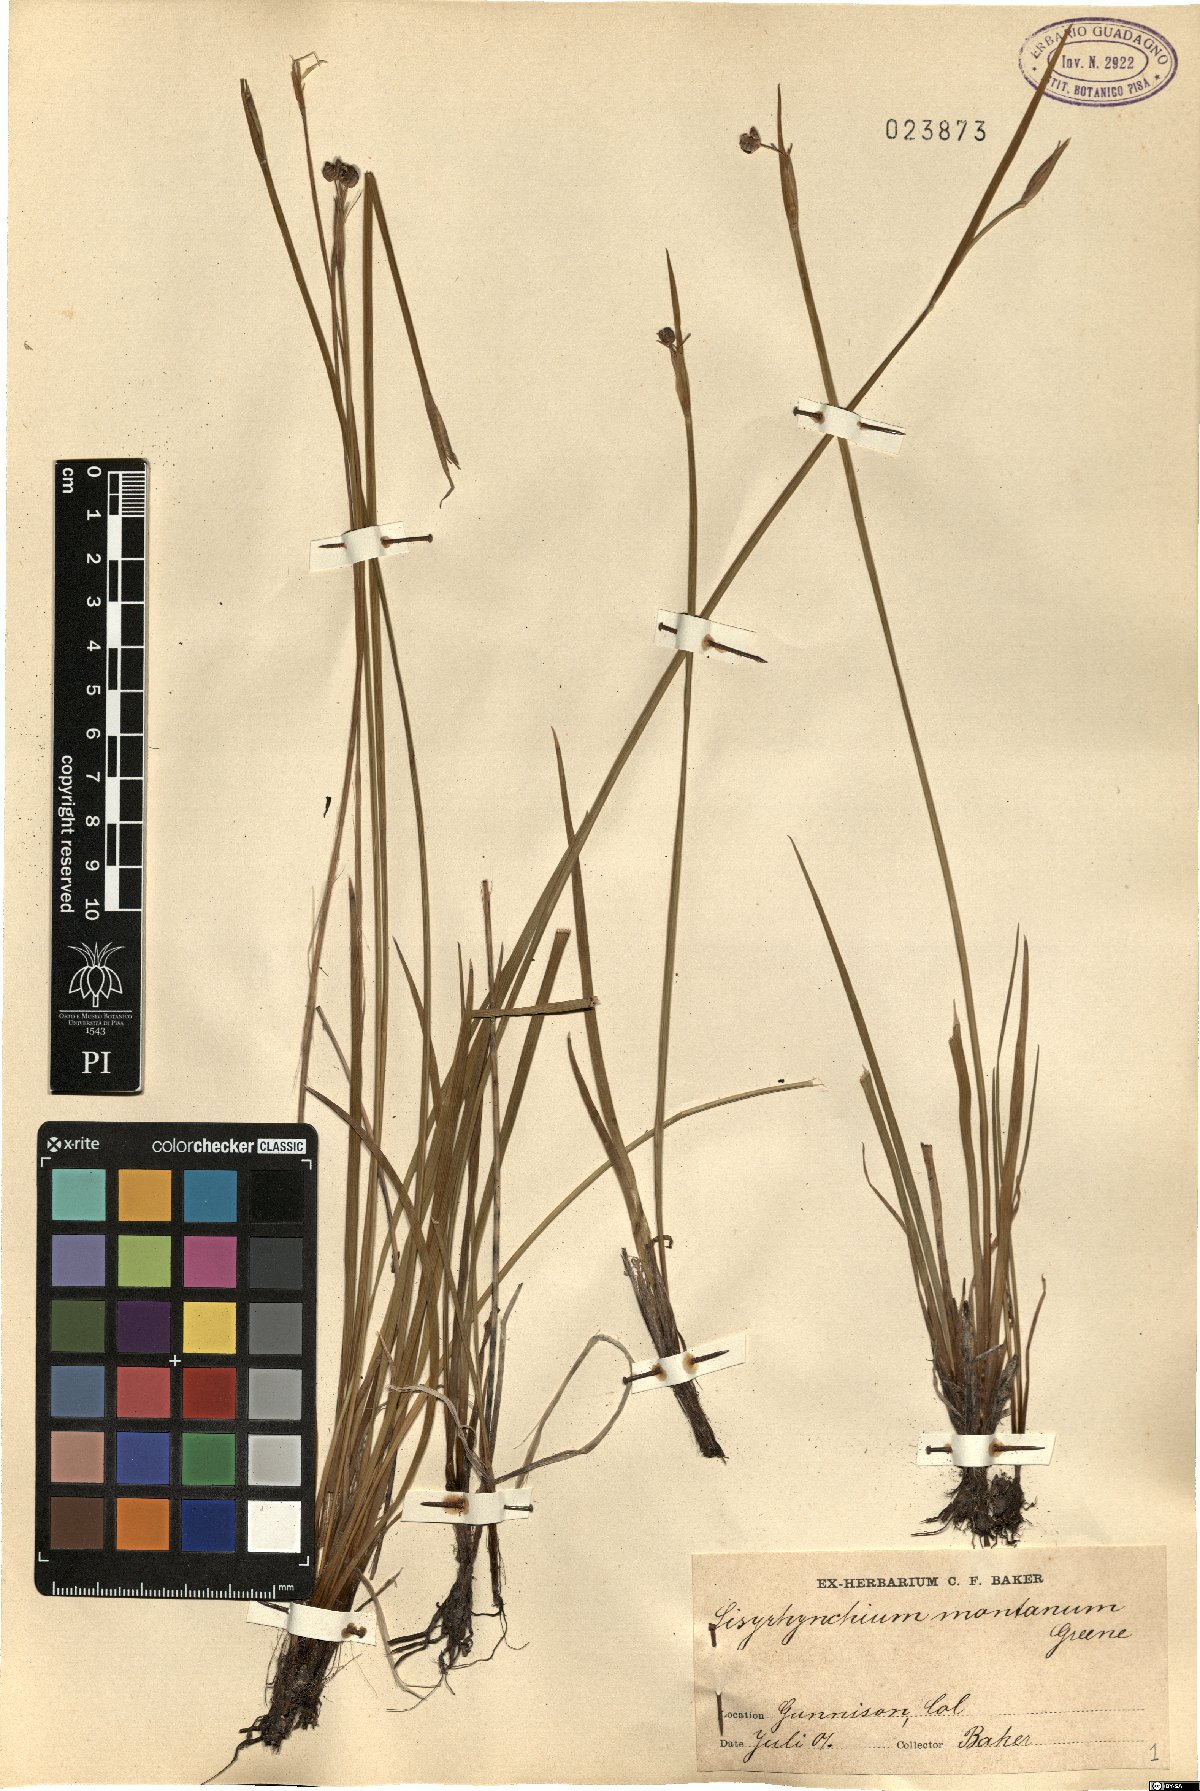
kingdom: Plantae
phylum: Tracheophyta
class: Liliopsida
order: Asparagales
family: Iridaceae
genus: Sisyrinchium
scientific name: Sisyrinchium montanum
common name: American blue-eyed-grass
